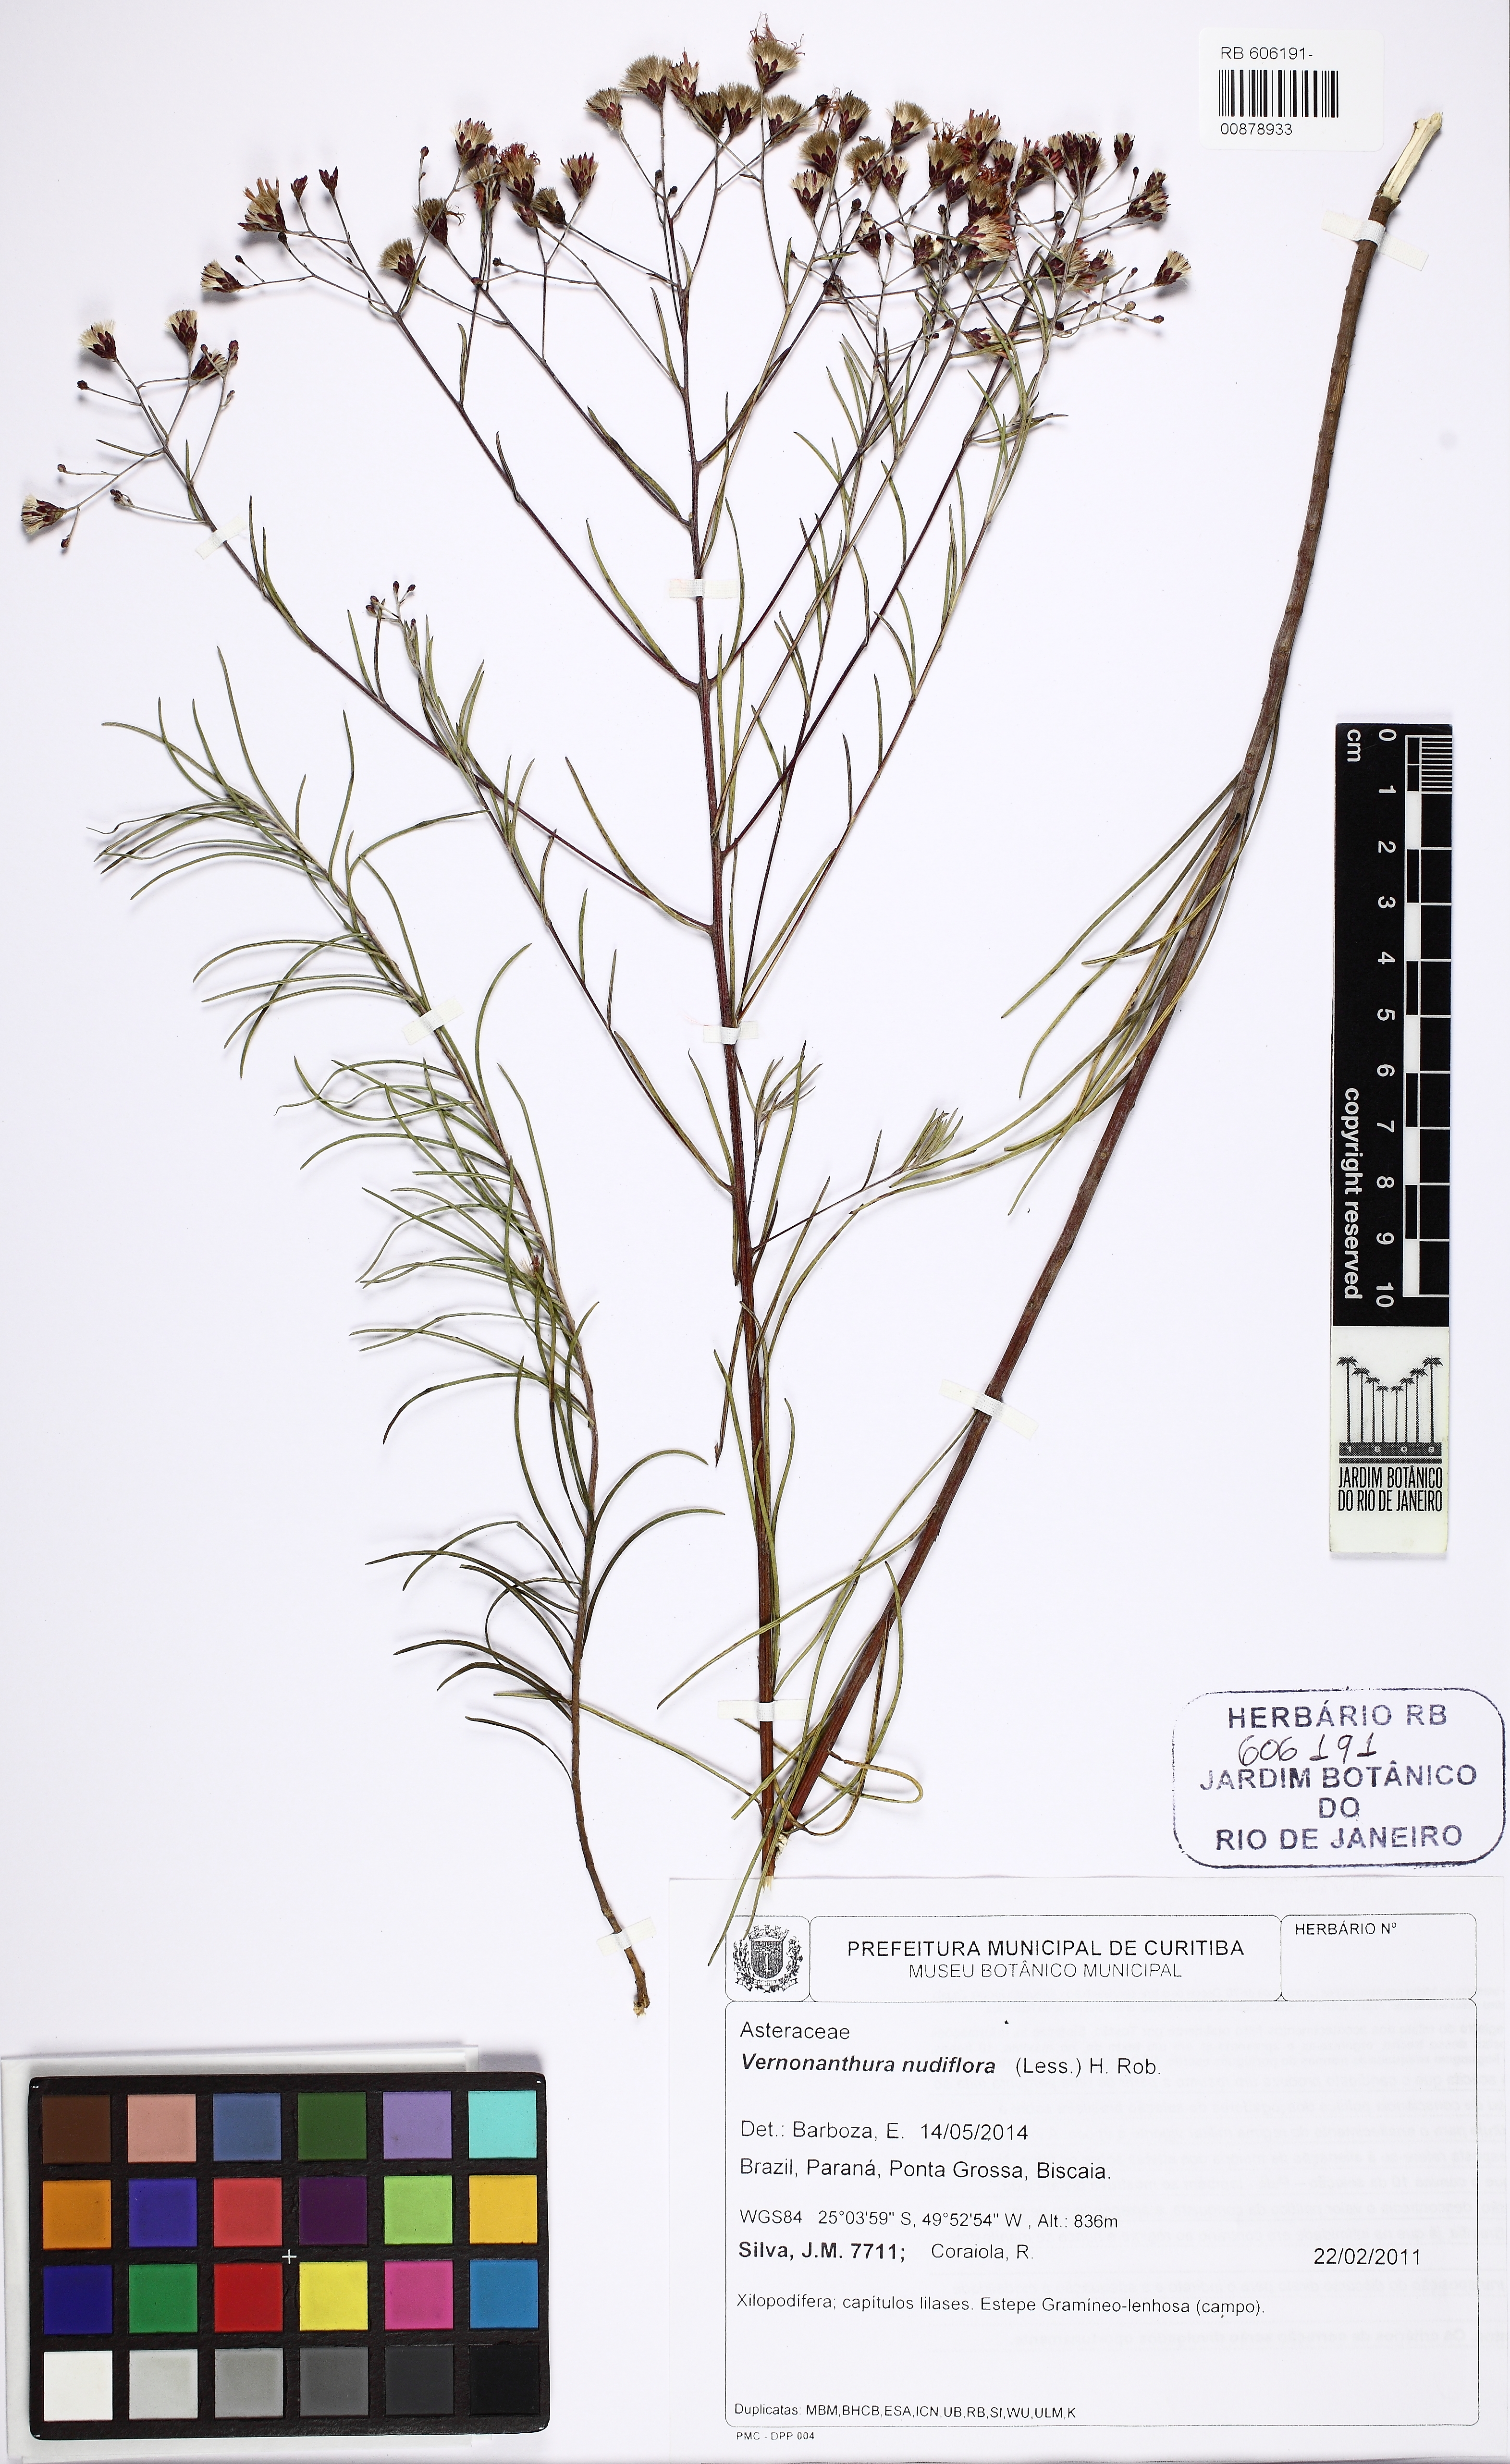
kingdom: Plantae
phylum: Tracheophyta
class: Magnoliopsida
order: Asterales
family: Asteraceae
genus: Vernonanthura
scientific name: Vernonanthura nudiflora
